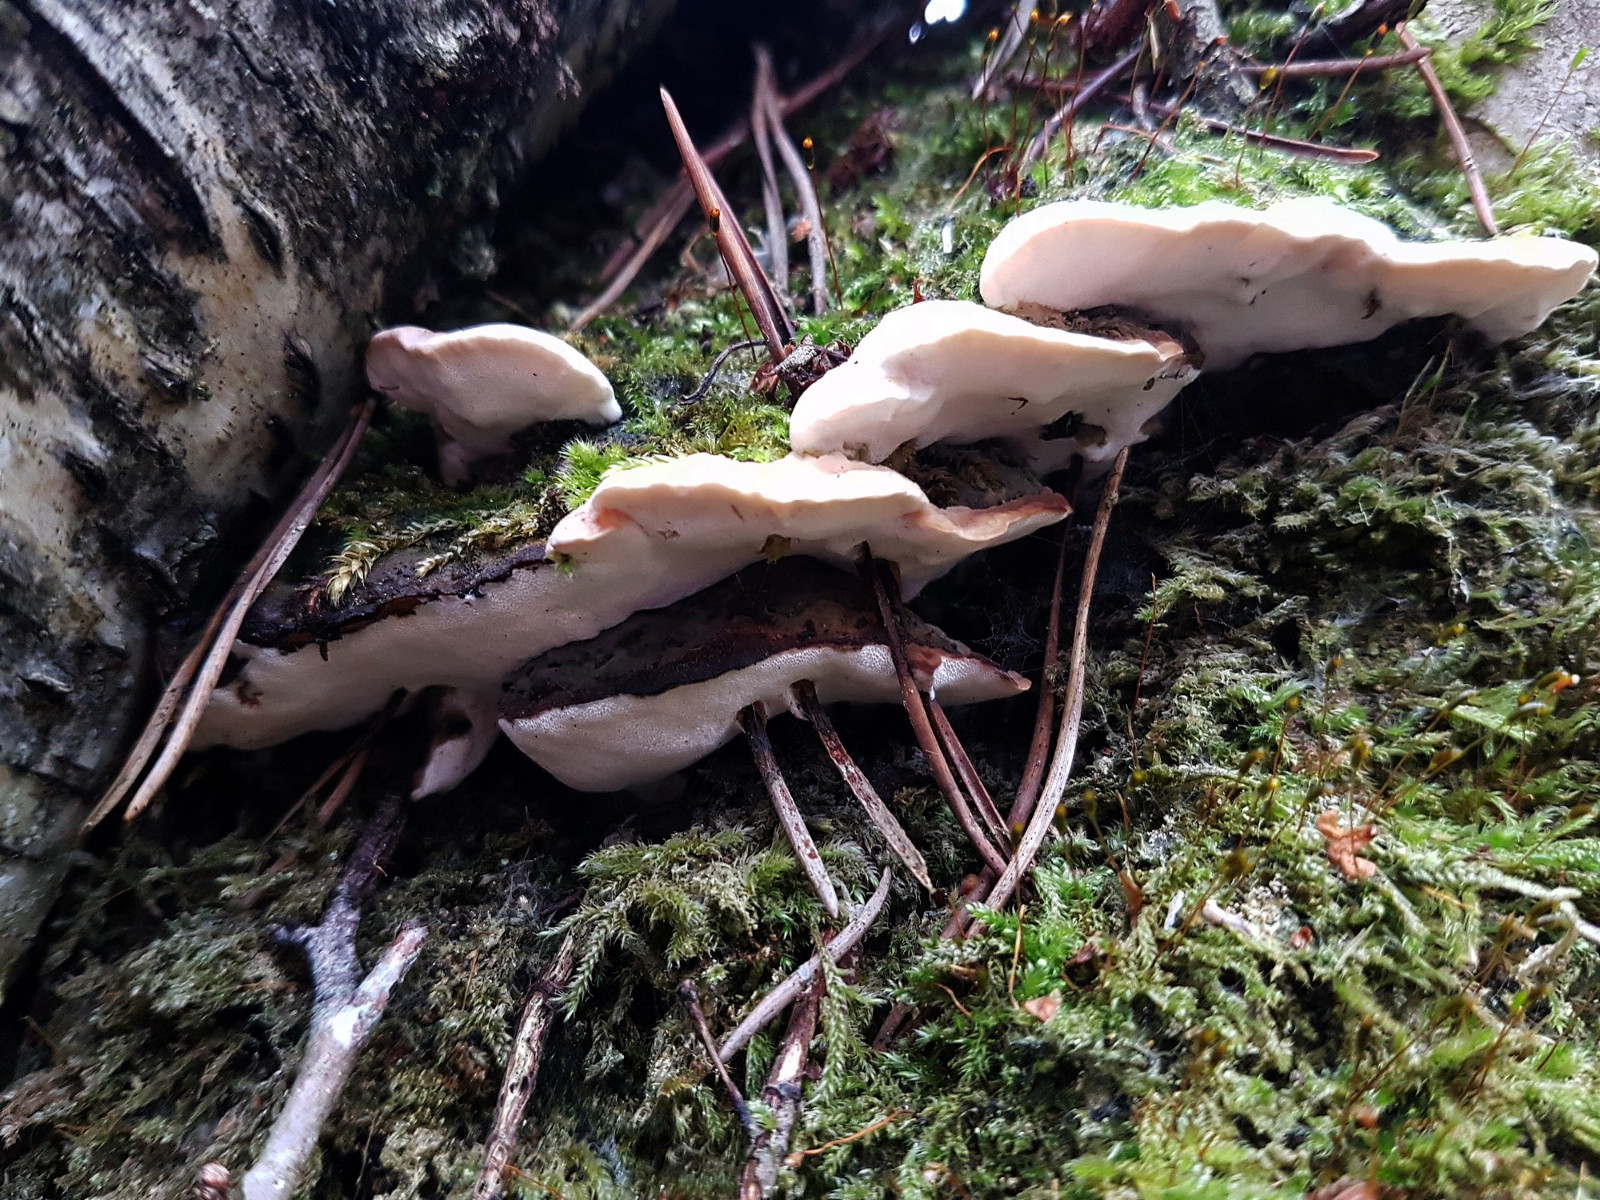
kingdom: Fungi
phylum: Basidiomycota
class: Agaricomycetes
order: Hymenochaetales
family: Oxyporaceae
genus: Oxyporus
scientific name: Oxyporus populinus
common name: sammenvokset trylleporesvamp
